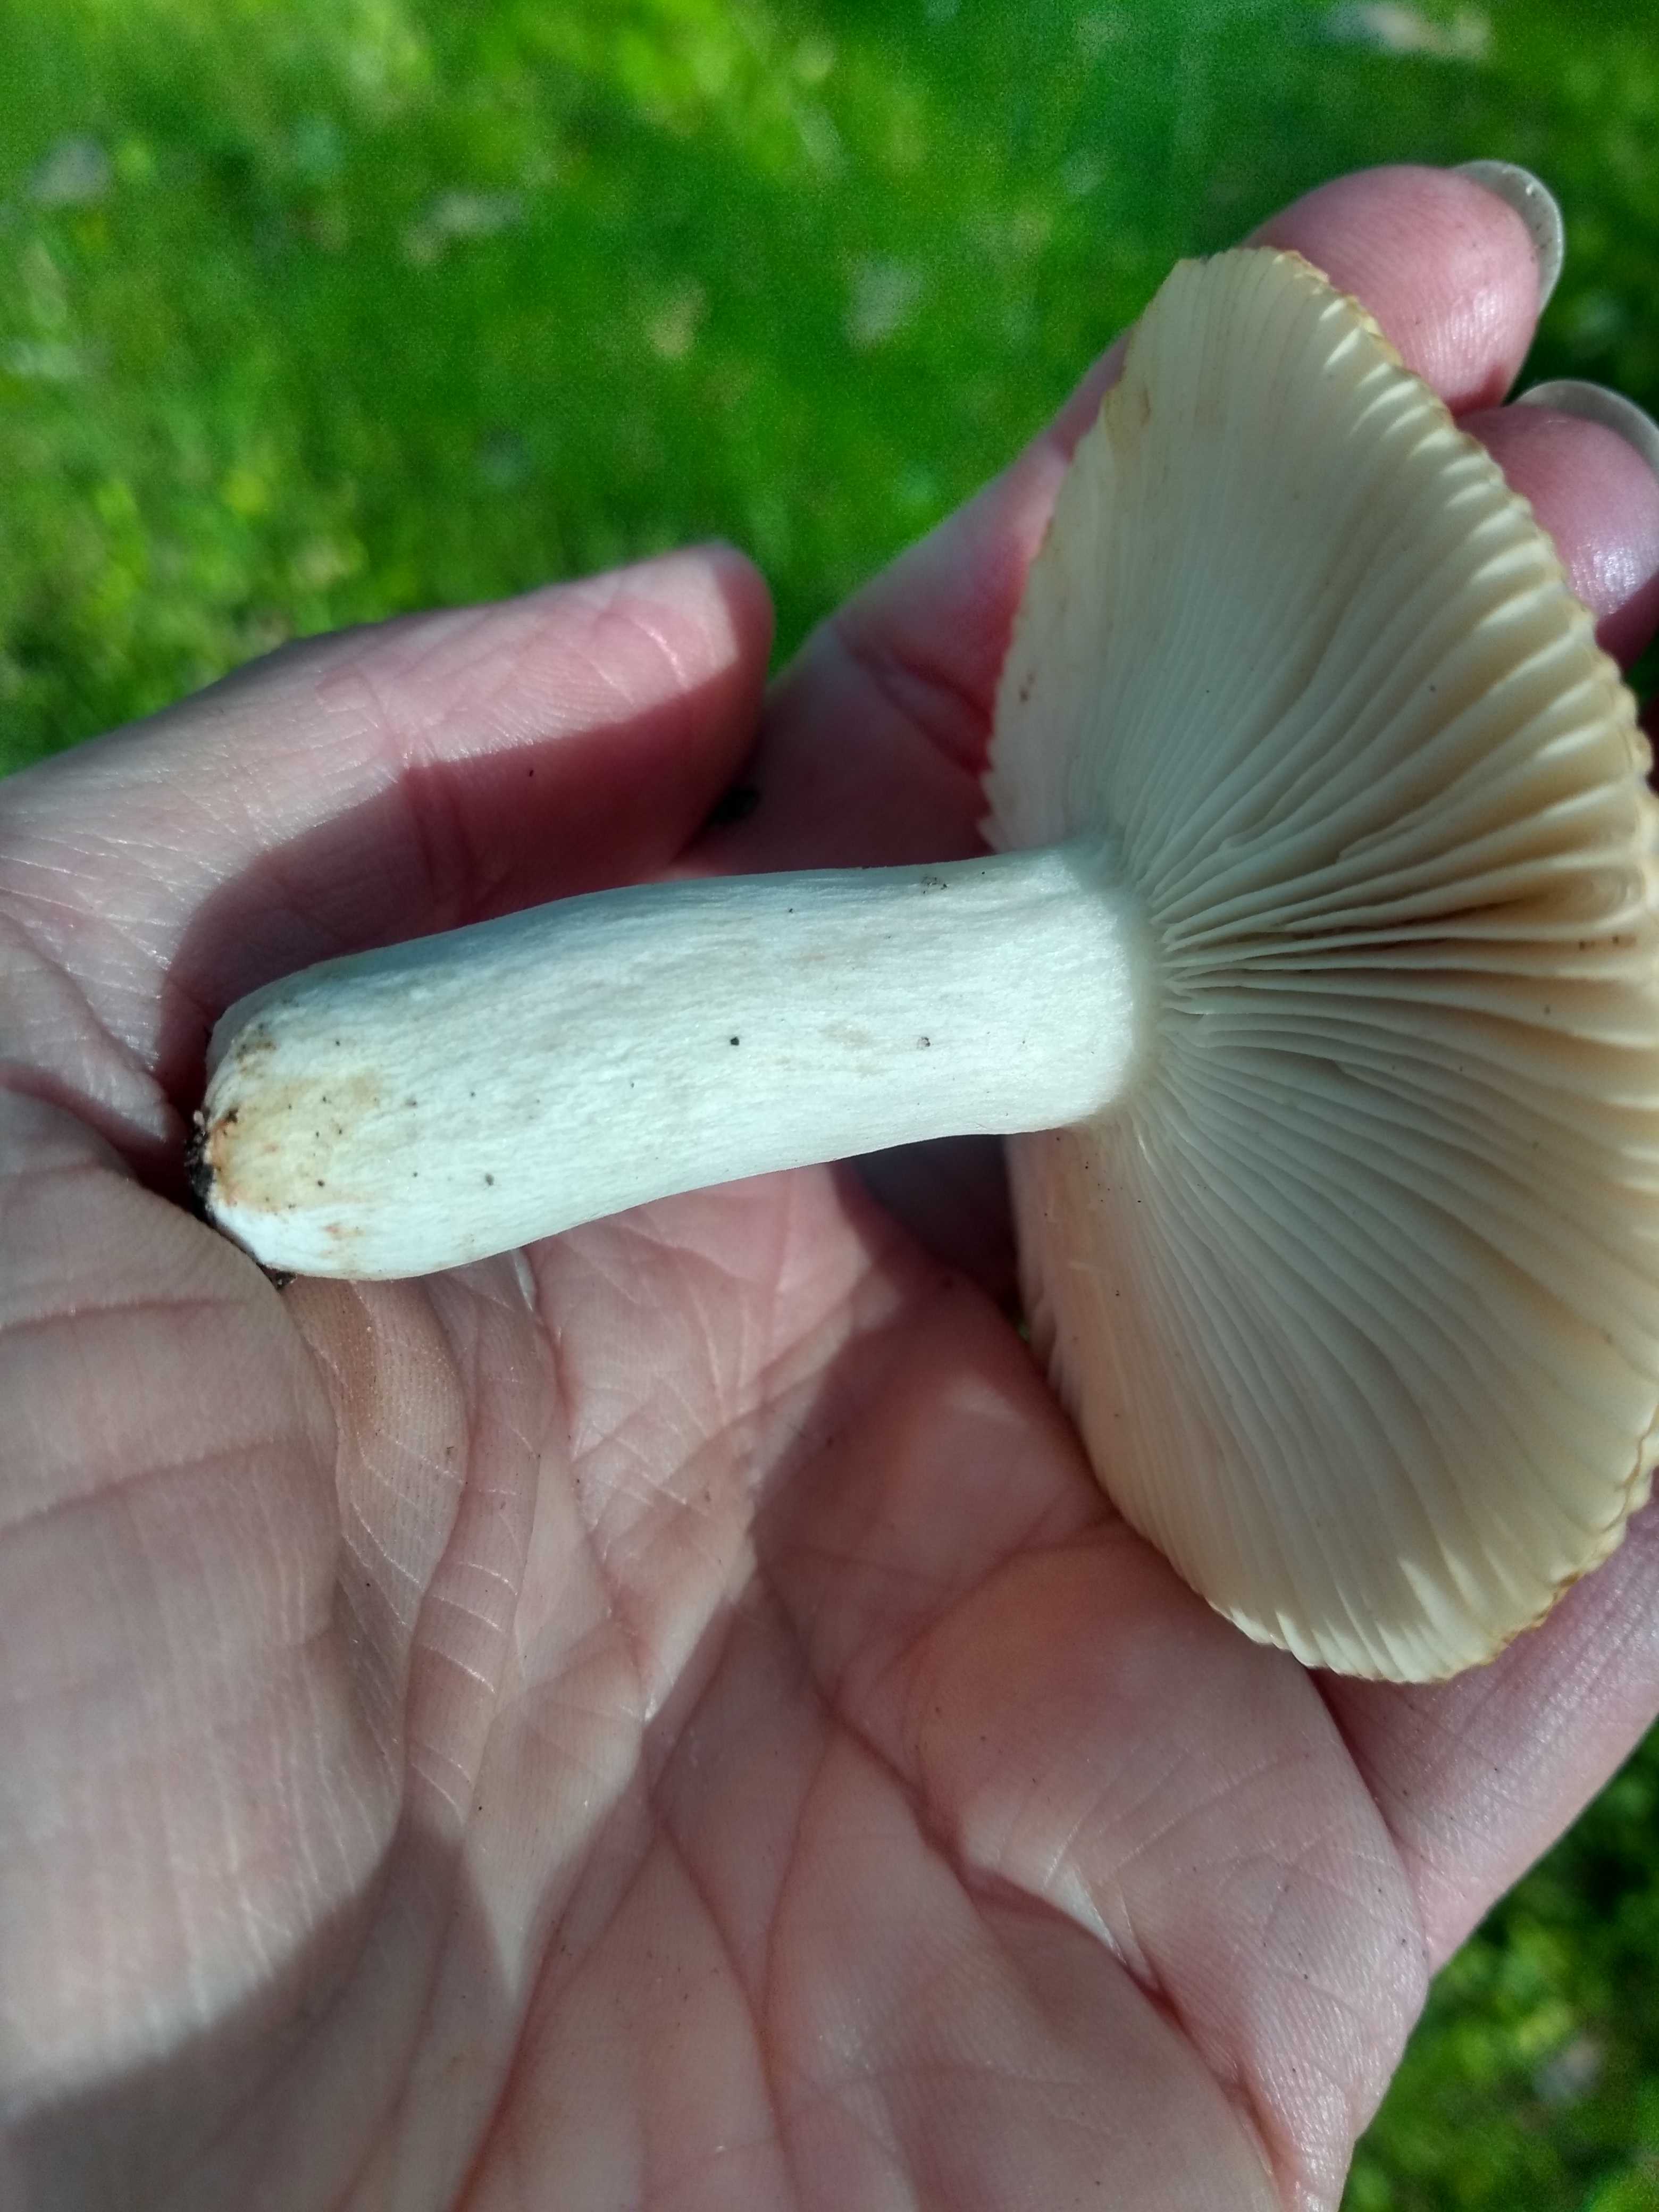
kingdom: Fungi
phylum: Basidiomycota
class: Agaricomycetes
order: Russulales
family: Russulaceae
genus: Russula
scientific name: Russula recondita
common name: mild kam-skørhat
